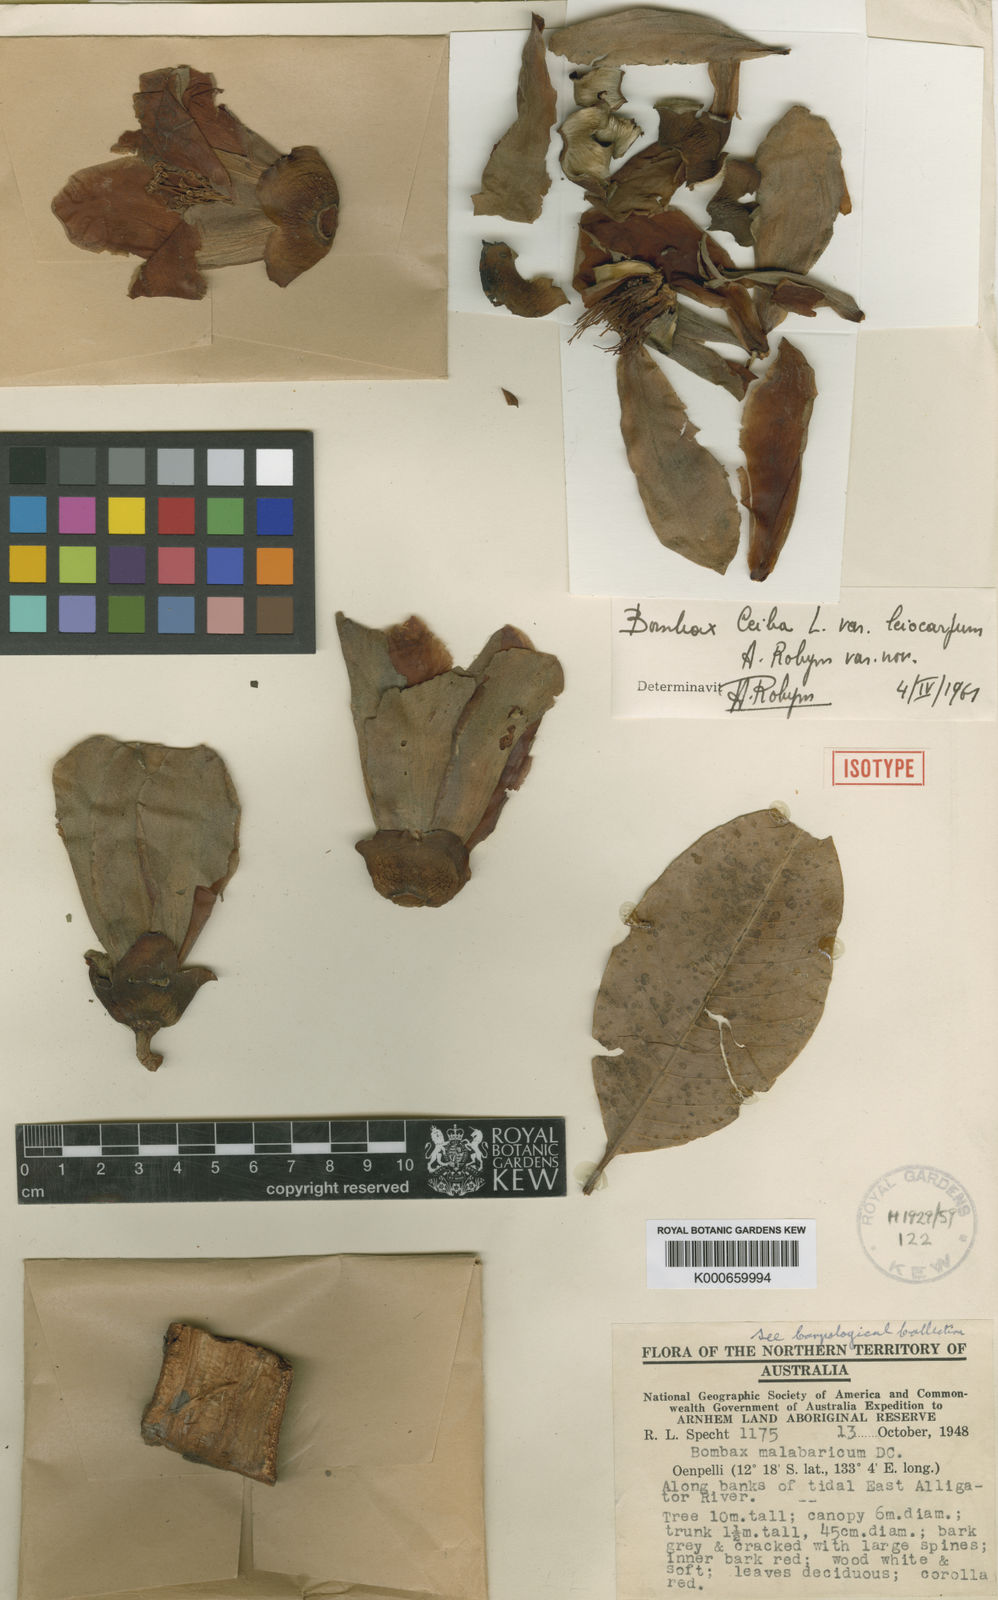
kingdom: Plantae
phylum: Tracheophyta
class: Magnoliopsida
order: Malvales
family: Malvaceae
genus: Bombax
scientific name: Bombax ceiba
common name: Northern-cottonwood
